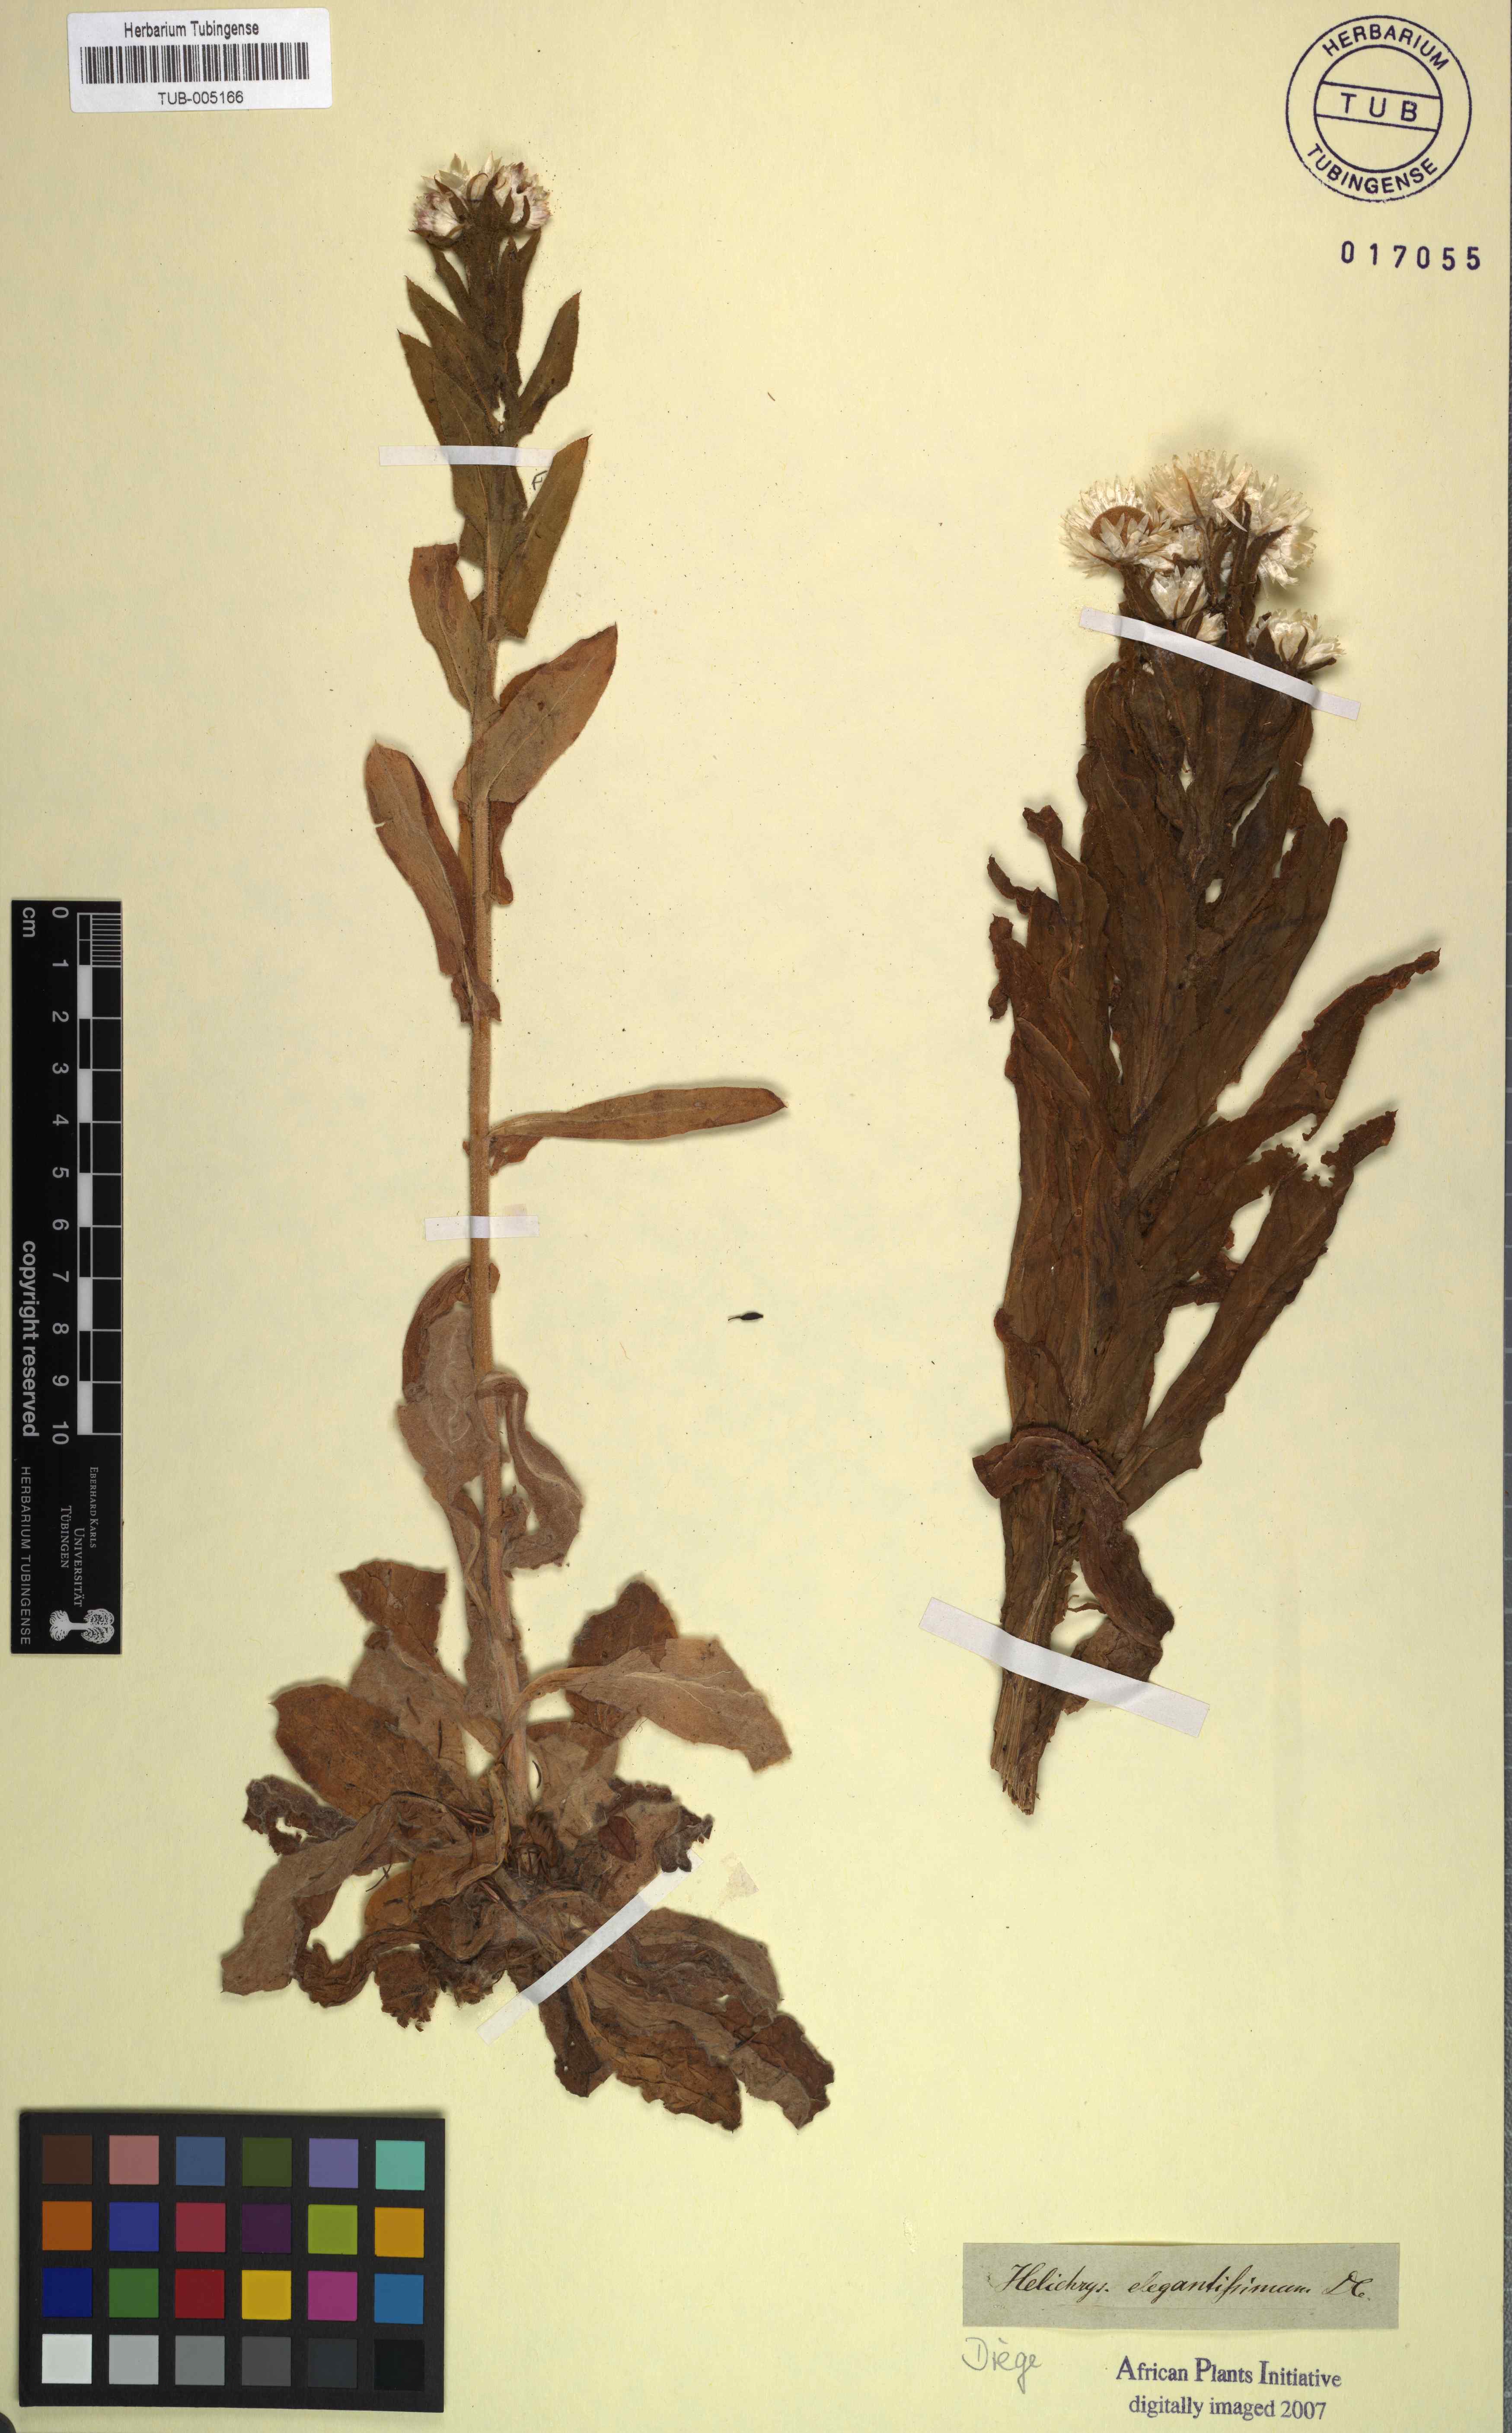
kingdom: Plantae
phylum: Tracheophyta
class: Magnoliopsida
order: Asterales
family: Asteraceae
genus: Helichrysum
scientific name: Helichrysum elegantissimum
